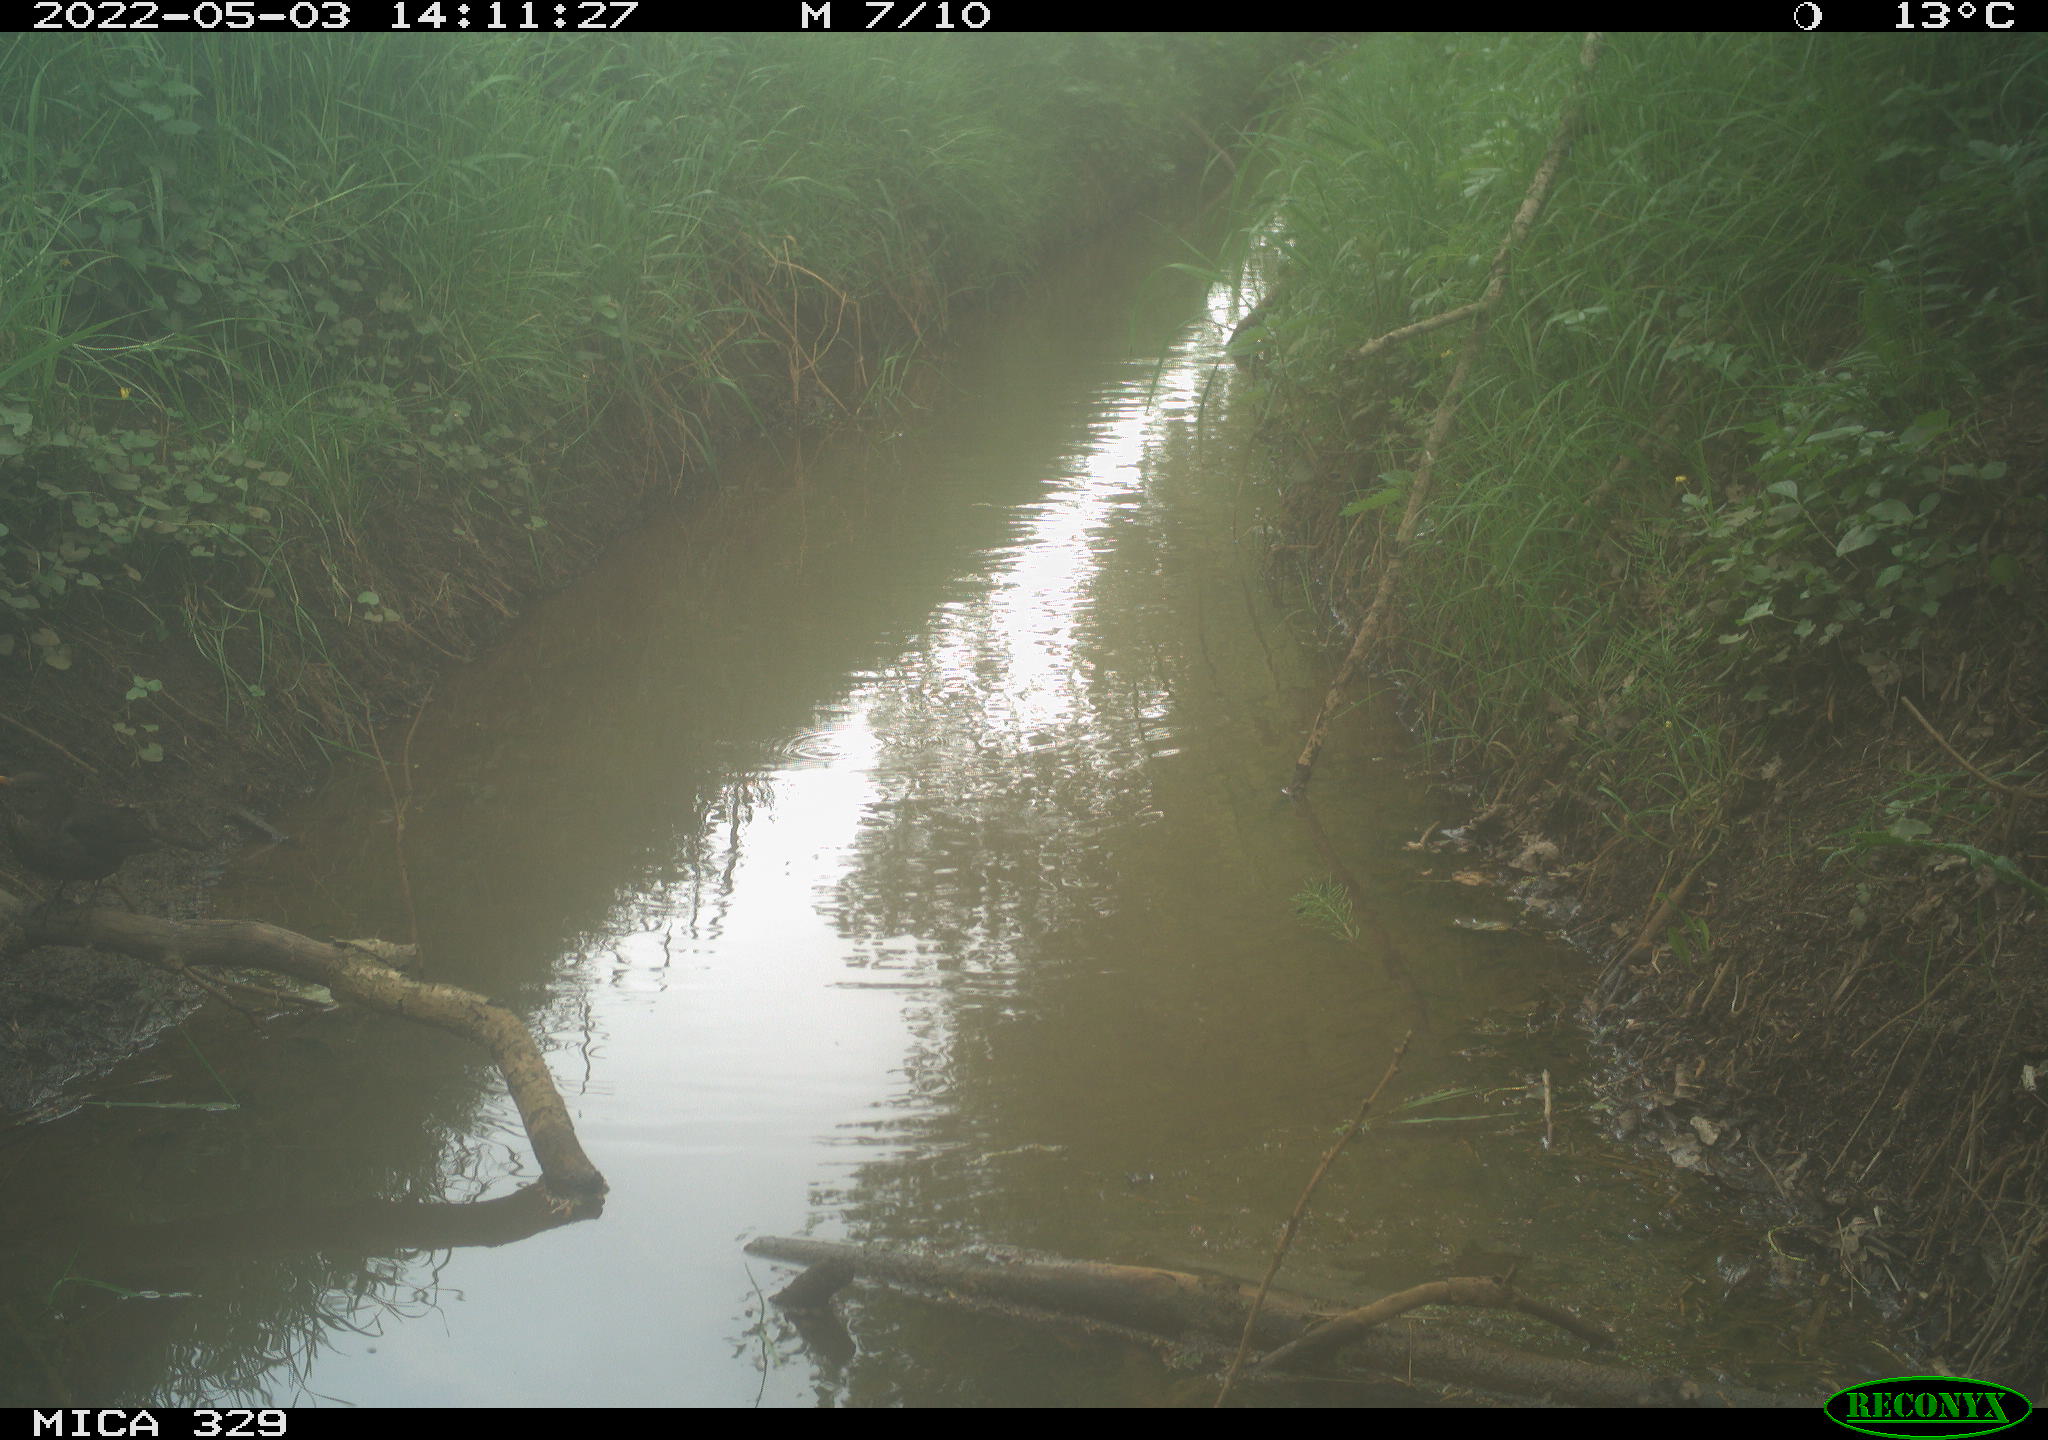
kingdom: Animalia
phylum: Chordata
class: Aves
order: Passeriformes
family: Turdidae
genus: Turdus
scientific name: Turdus merula
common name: Common blackbird
